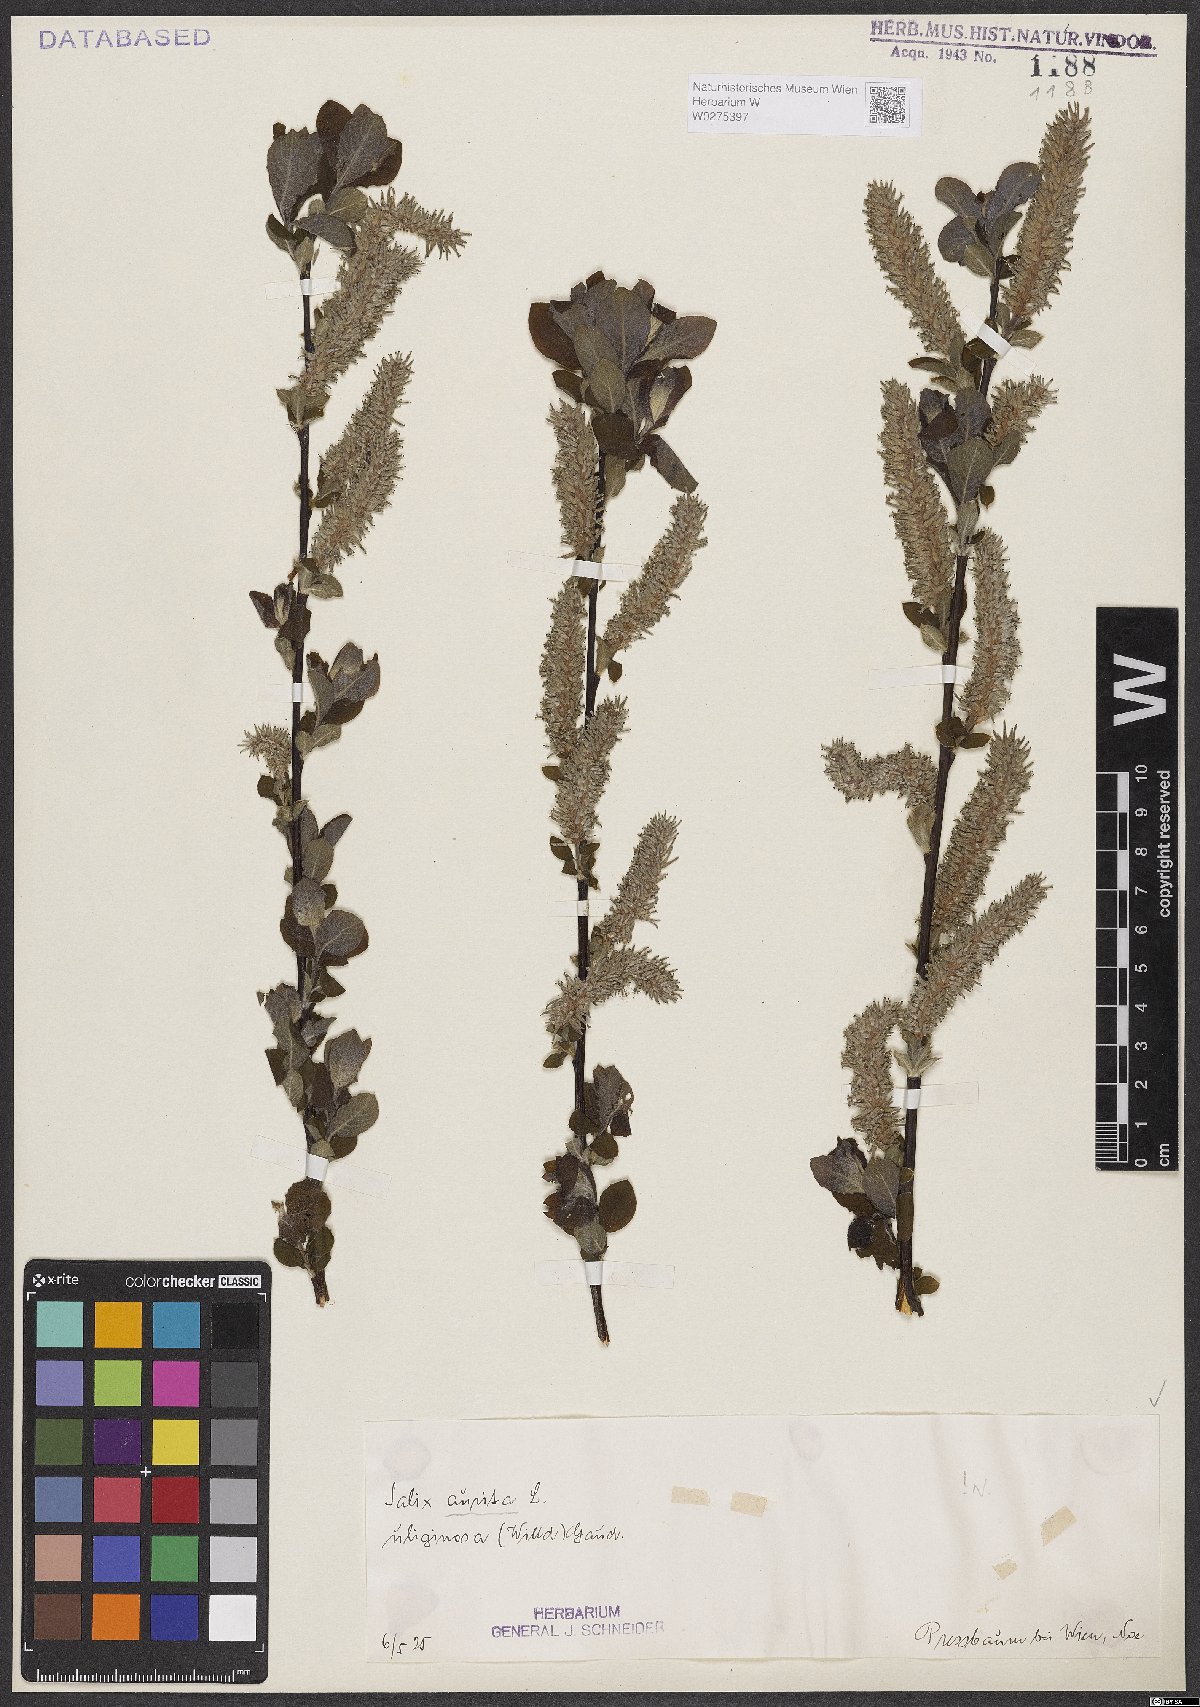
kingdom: Plantae
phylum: Tracheophyta
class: Magnoliopsida
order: Malpighiales
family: Salicaceae
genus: Salix
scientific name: Salix aurita
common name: Eared willow
